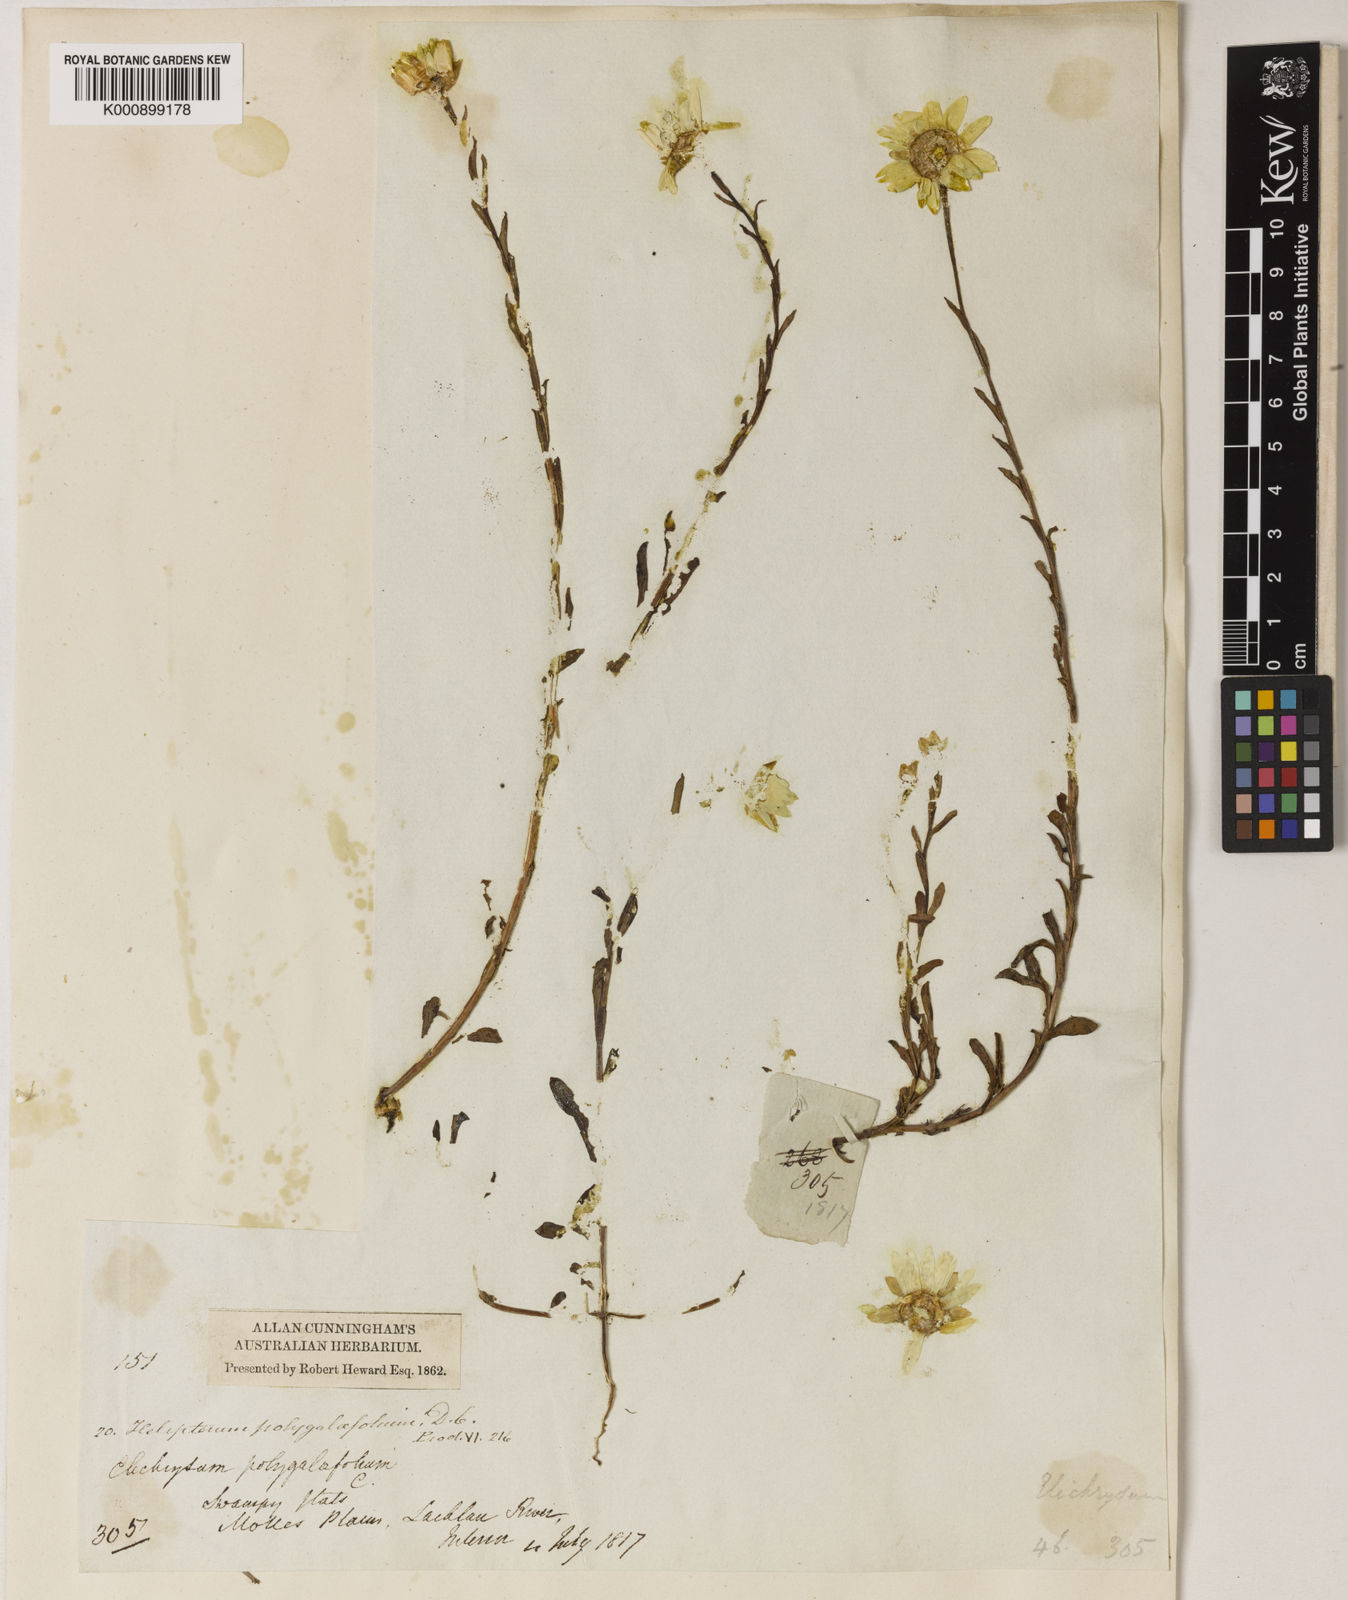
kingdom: Plantae
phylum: Tracheophyta
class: Magnoliopsida
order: Asterales
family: Asteraceae
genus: Rhodanthe
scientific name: Rhodanthe polygalifolia
